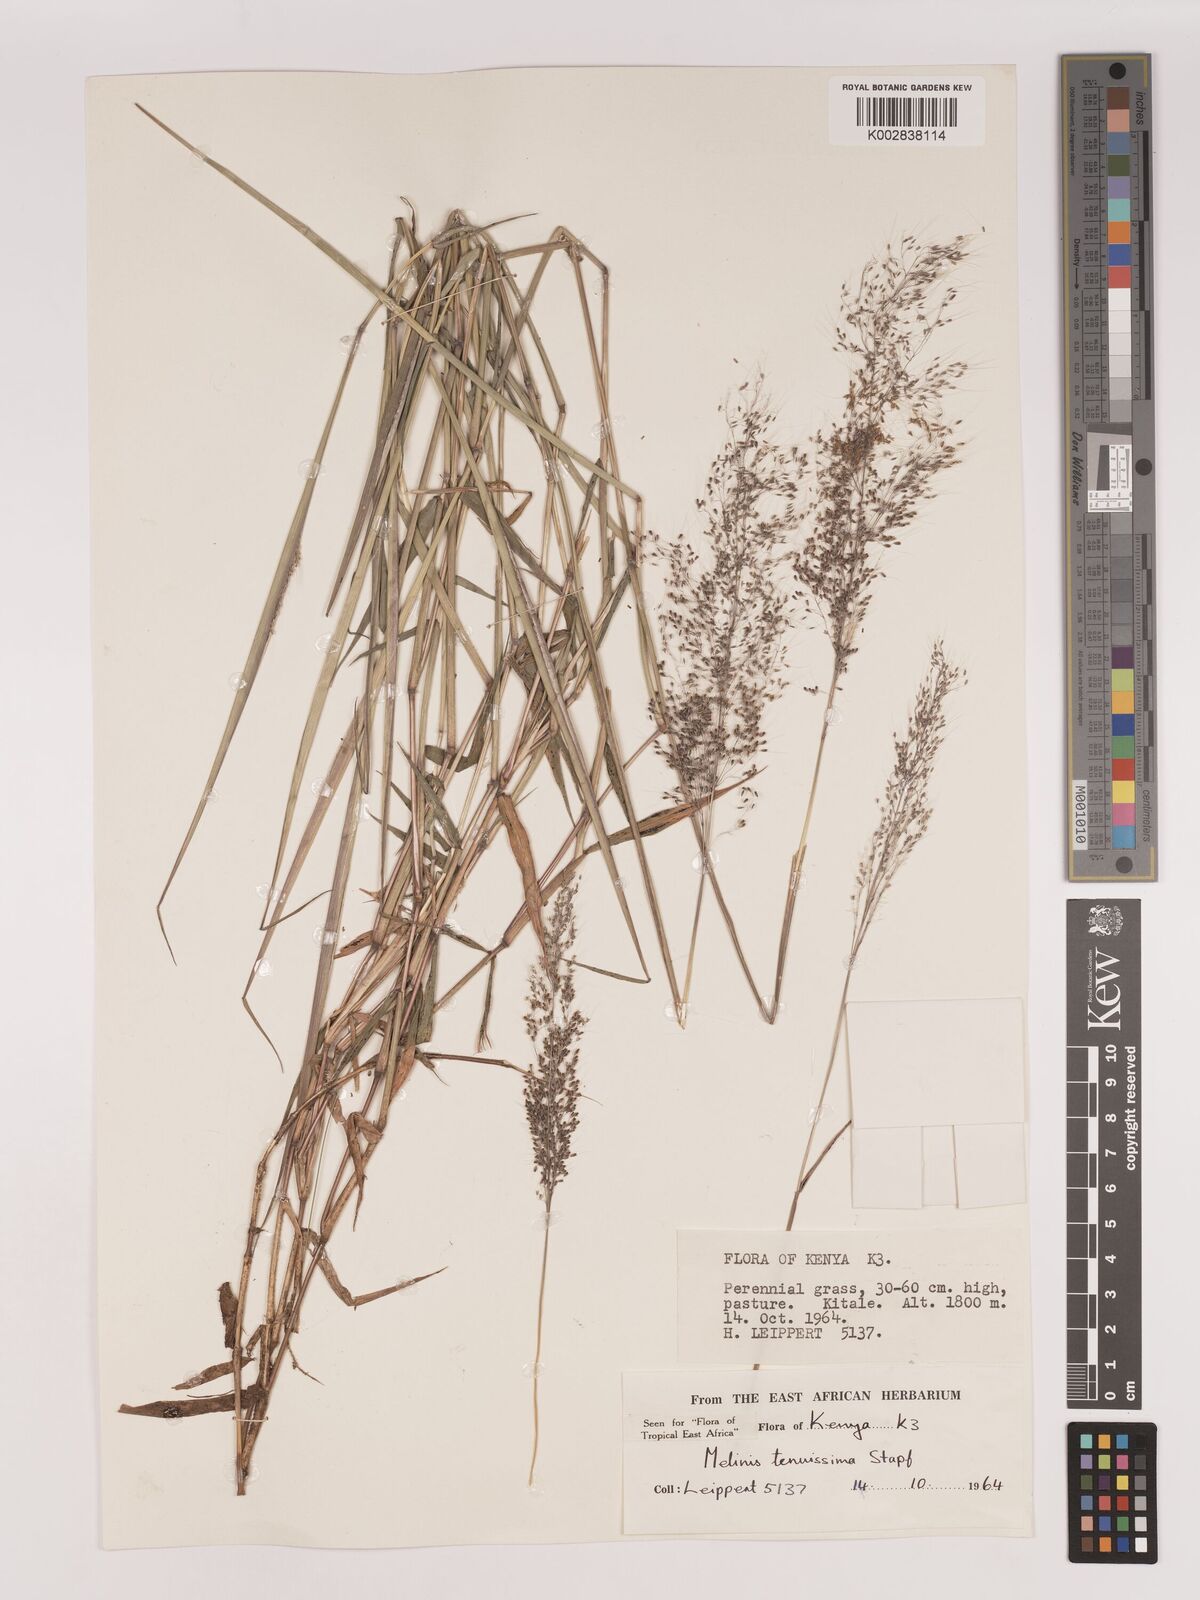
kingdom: Plantae
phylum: Tracheophyta
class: Liliopsida
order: Poales
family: Poaceae
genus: Melinis
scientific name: Melinis tenuissima
